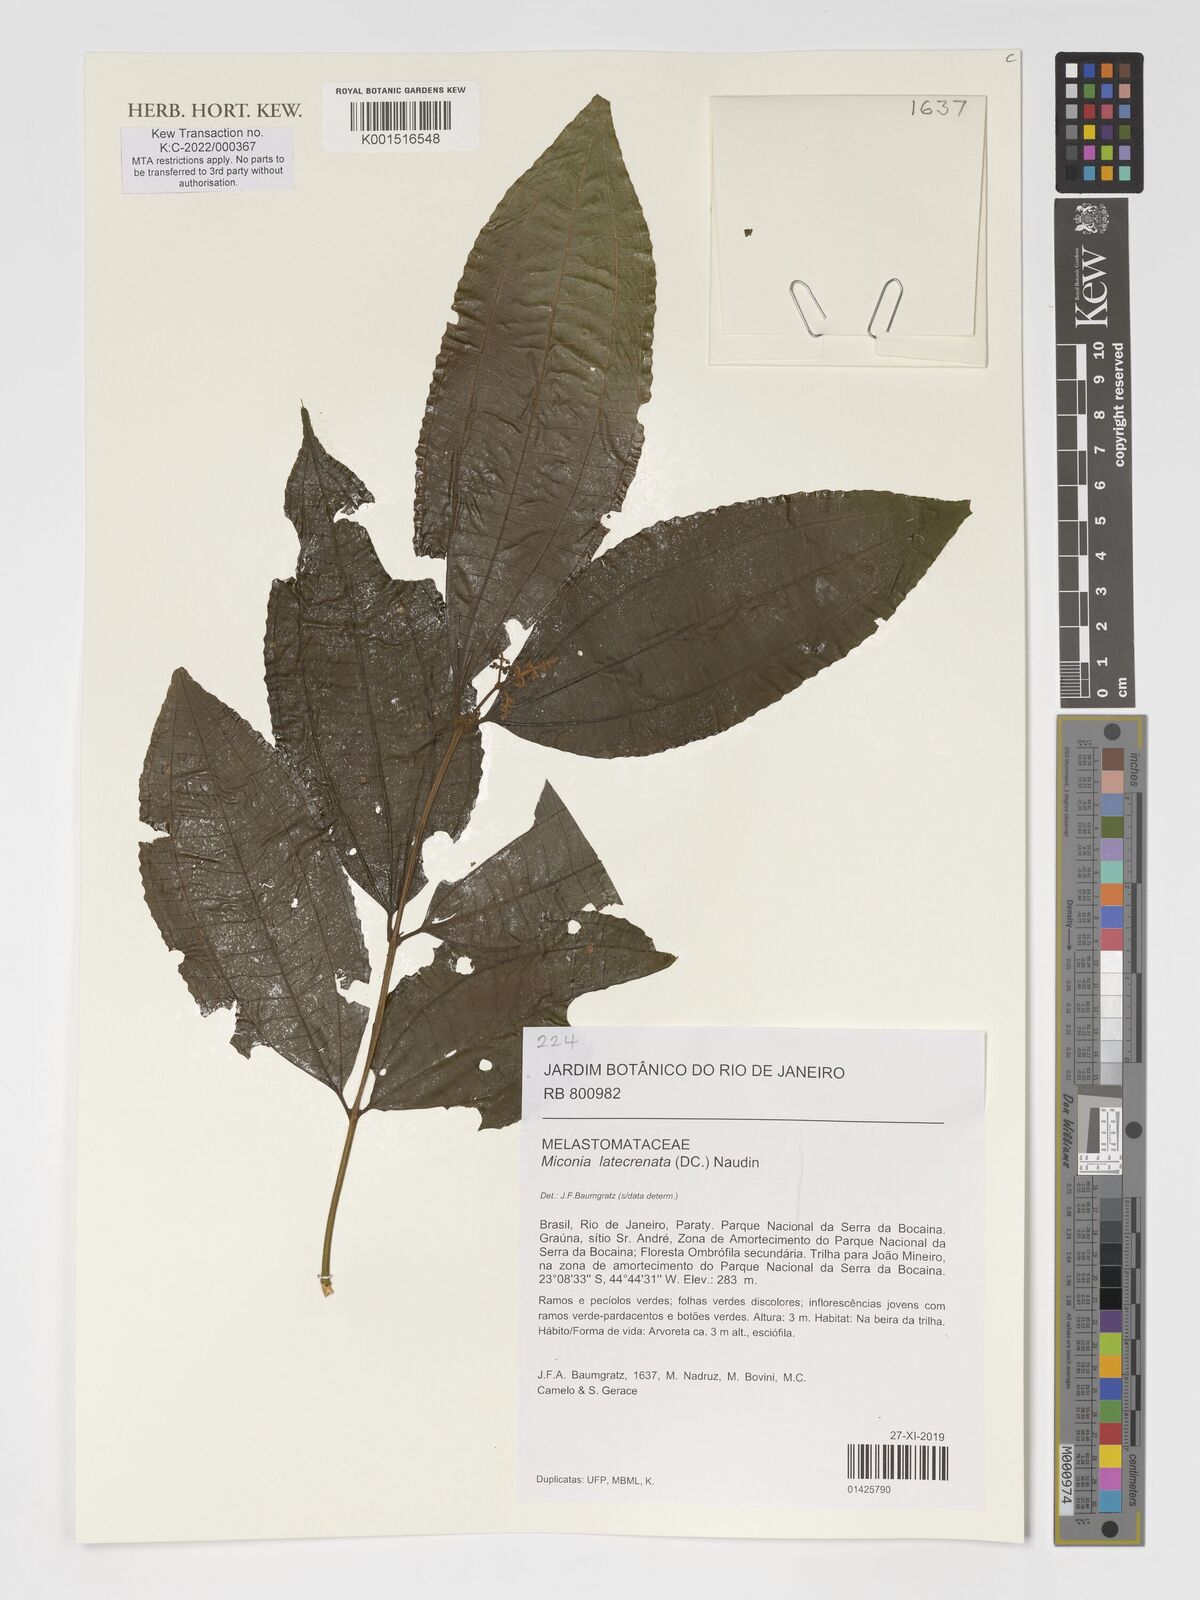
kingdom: Plantae
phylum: Tracheophyta
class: Magnoliopsida
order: Myrtales
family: Melastomataceae
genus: Miconia
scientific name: Miconia latecrenata
